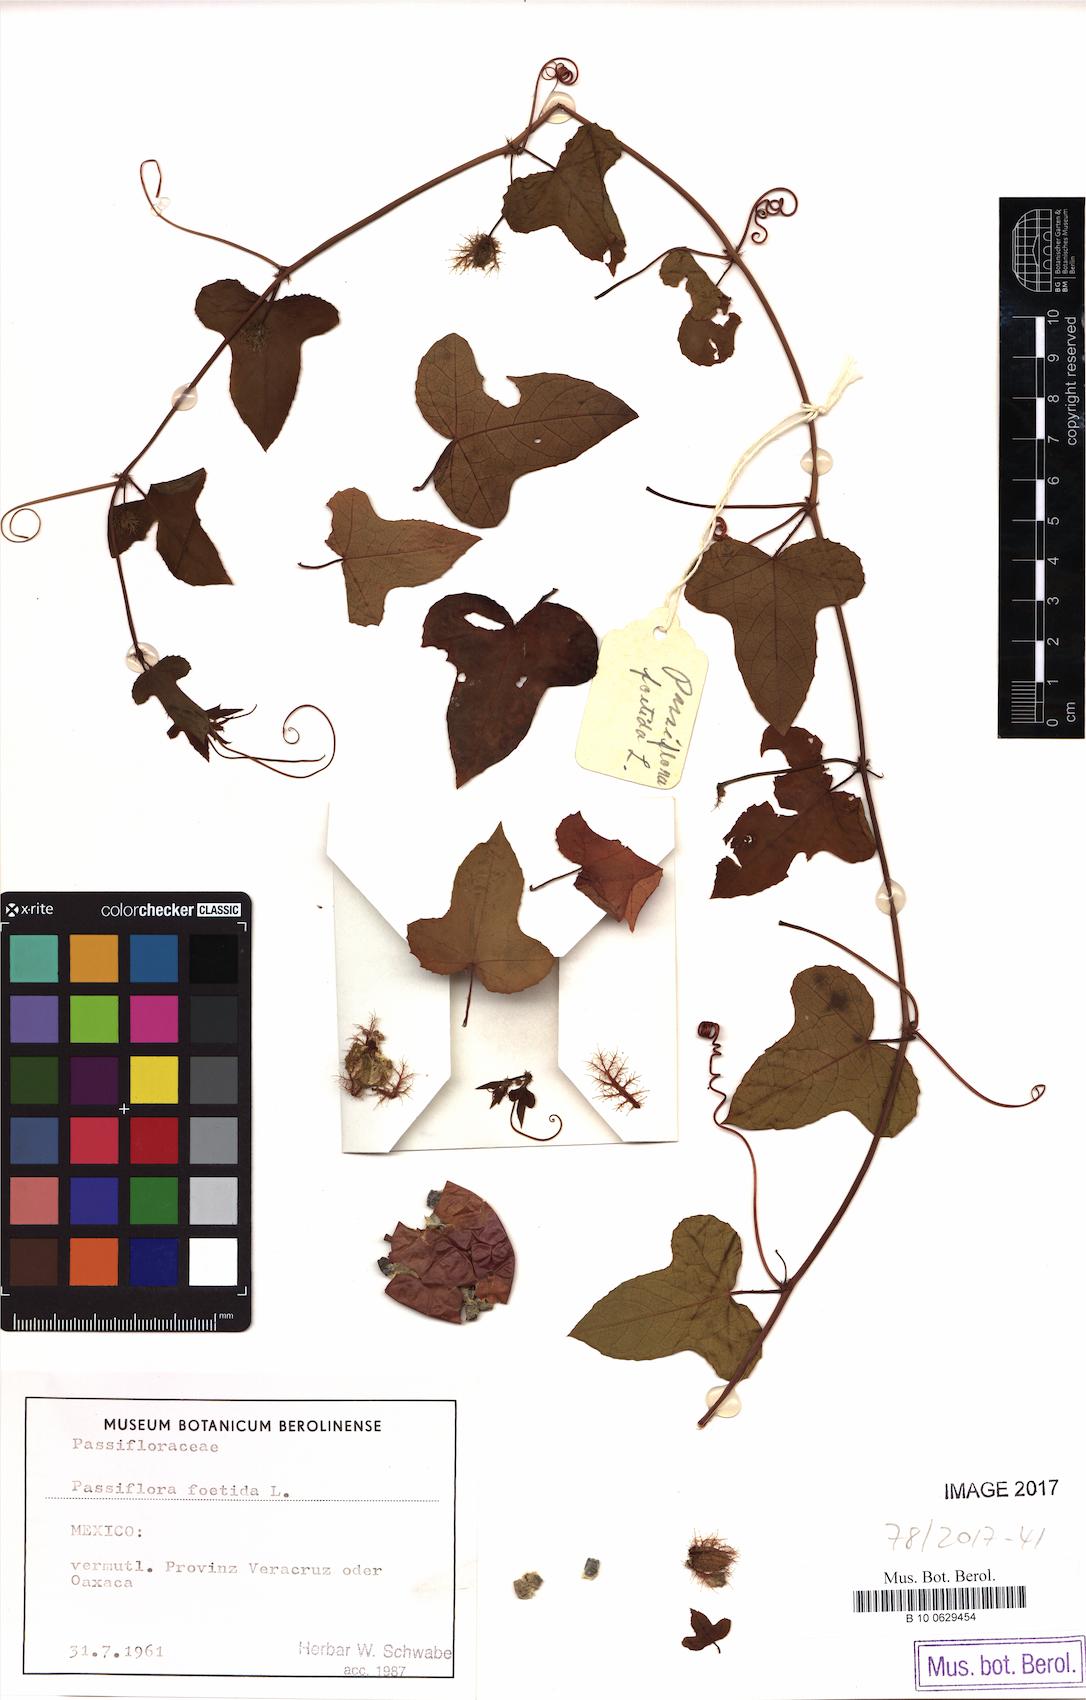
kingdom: Plantae
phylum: Tracheophyta
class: Magnoliopsida
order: Malpighiales
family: Passifloraceae
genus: Passiflora
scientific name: Passiflora foetida
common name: Fetid passionflower
